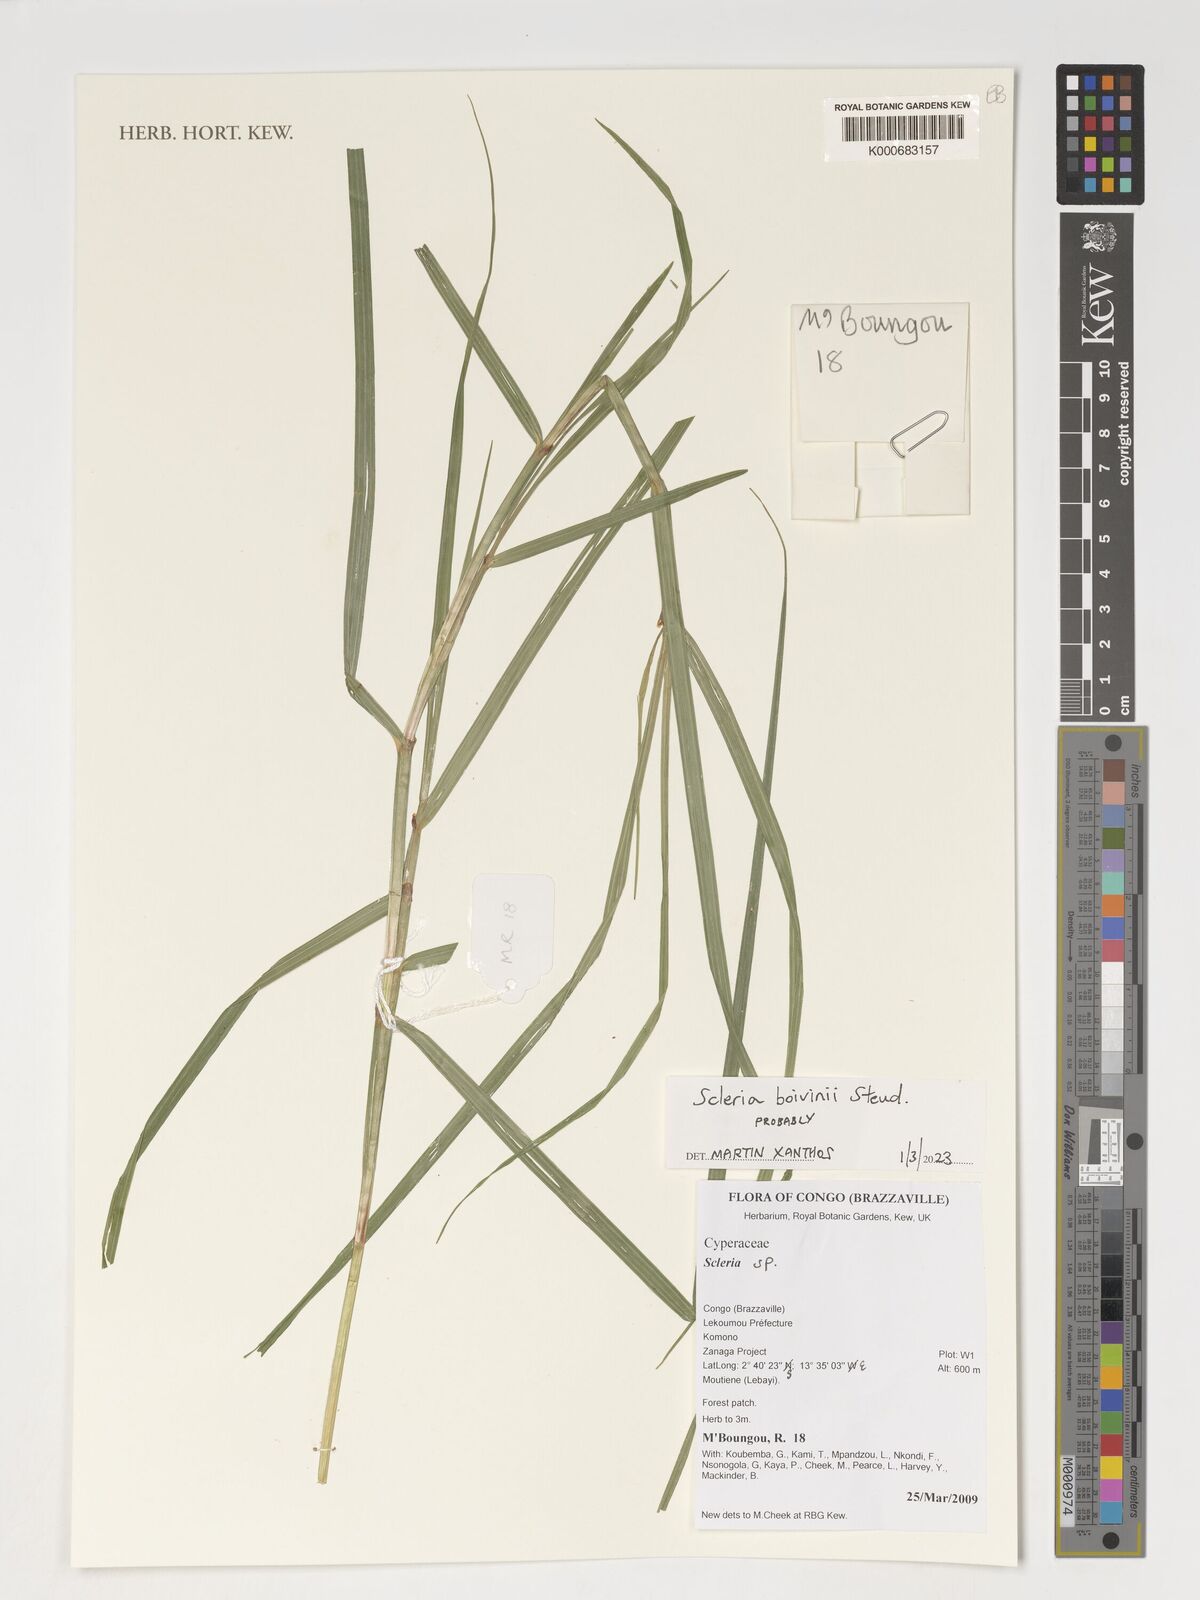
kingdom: Plantae
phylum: Tracheophyta
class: Liliopsida
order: Poales
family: Cyperaceae
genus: Scleria
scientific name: Scleria boivinii
